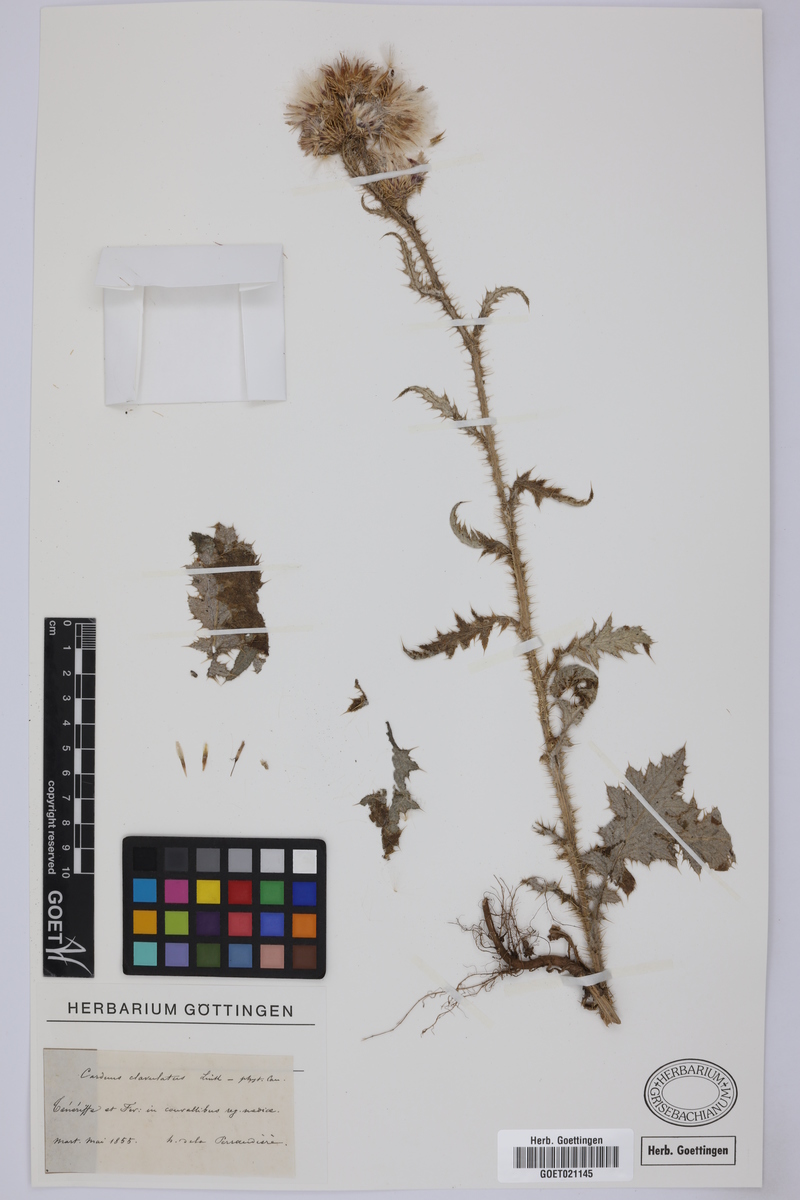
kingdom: Plantae
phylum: Tracheophyta
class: Magnoliopsida
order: Asterales
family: Asteraceae
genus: Carduus
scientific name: Carduus clavulatus
